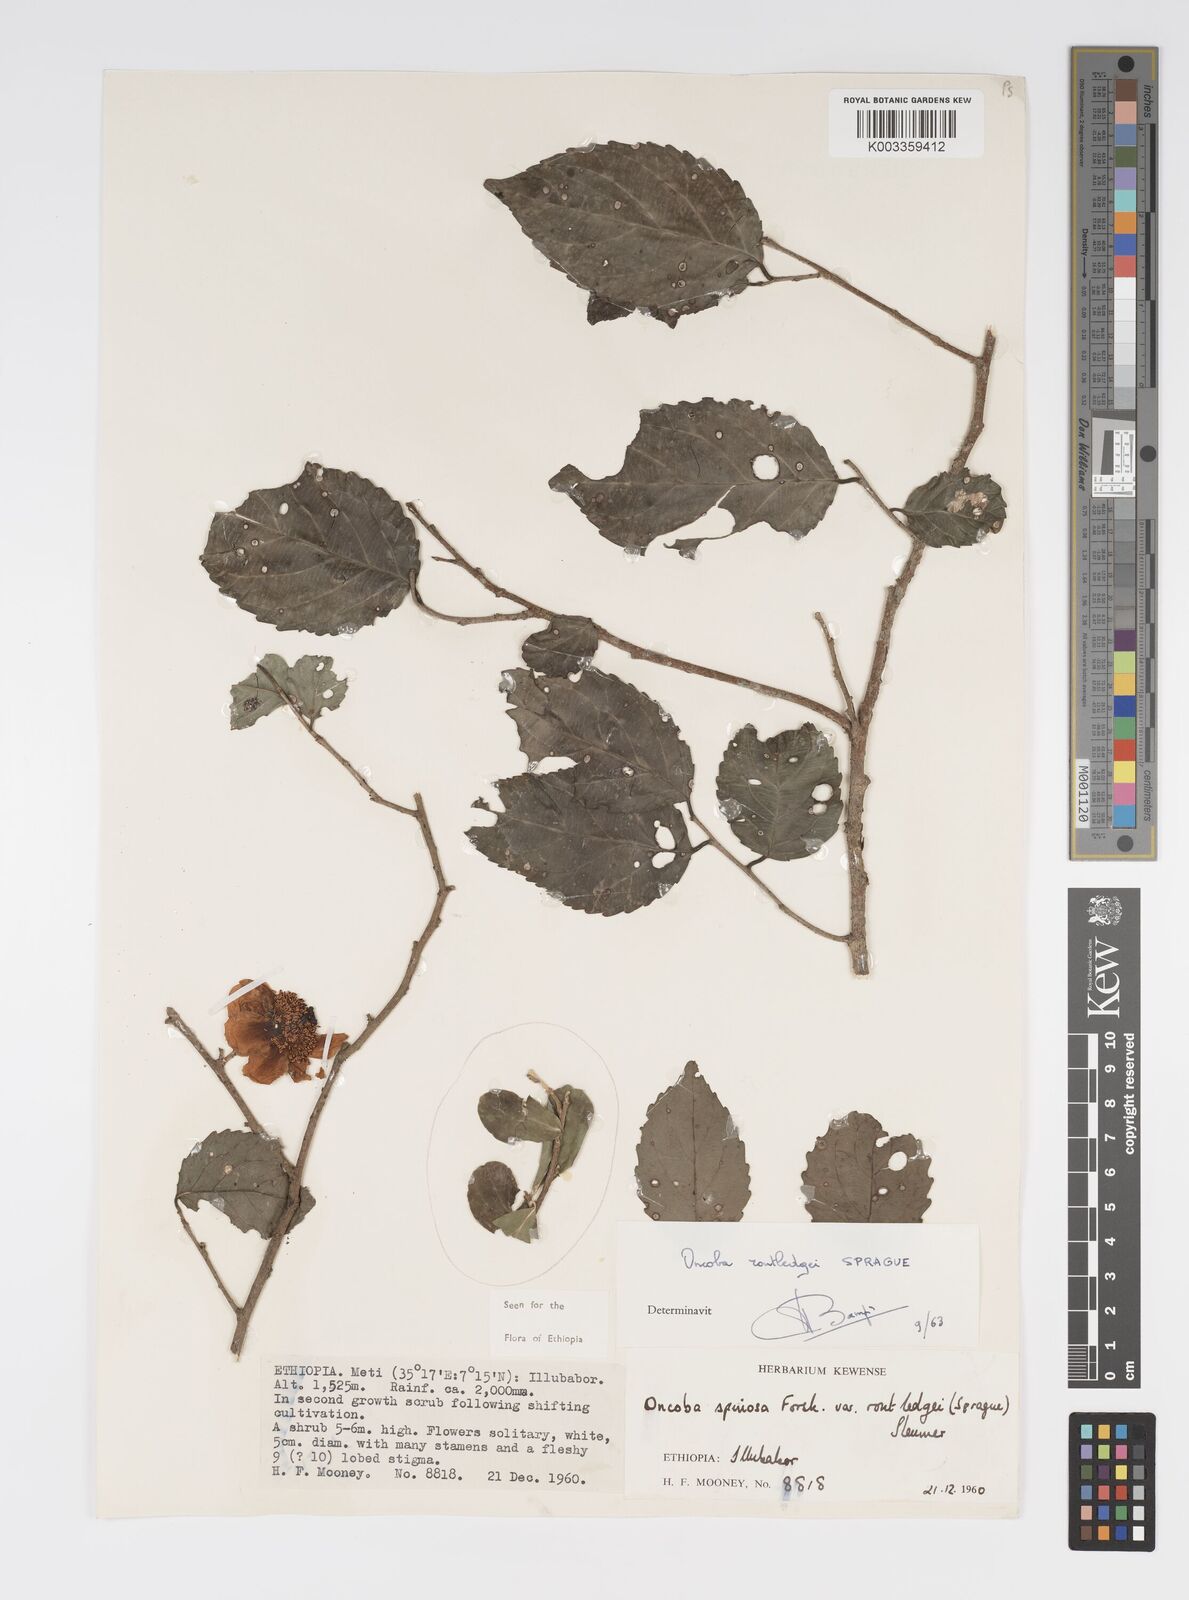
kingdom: Plantae
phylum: Tracheophyta
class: Magnoliopsida
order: Malpighiales
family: Salicaceae
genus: Oncoba
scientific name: Oncoba routledgei
